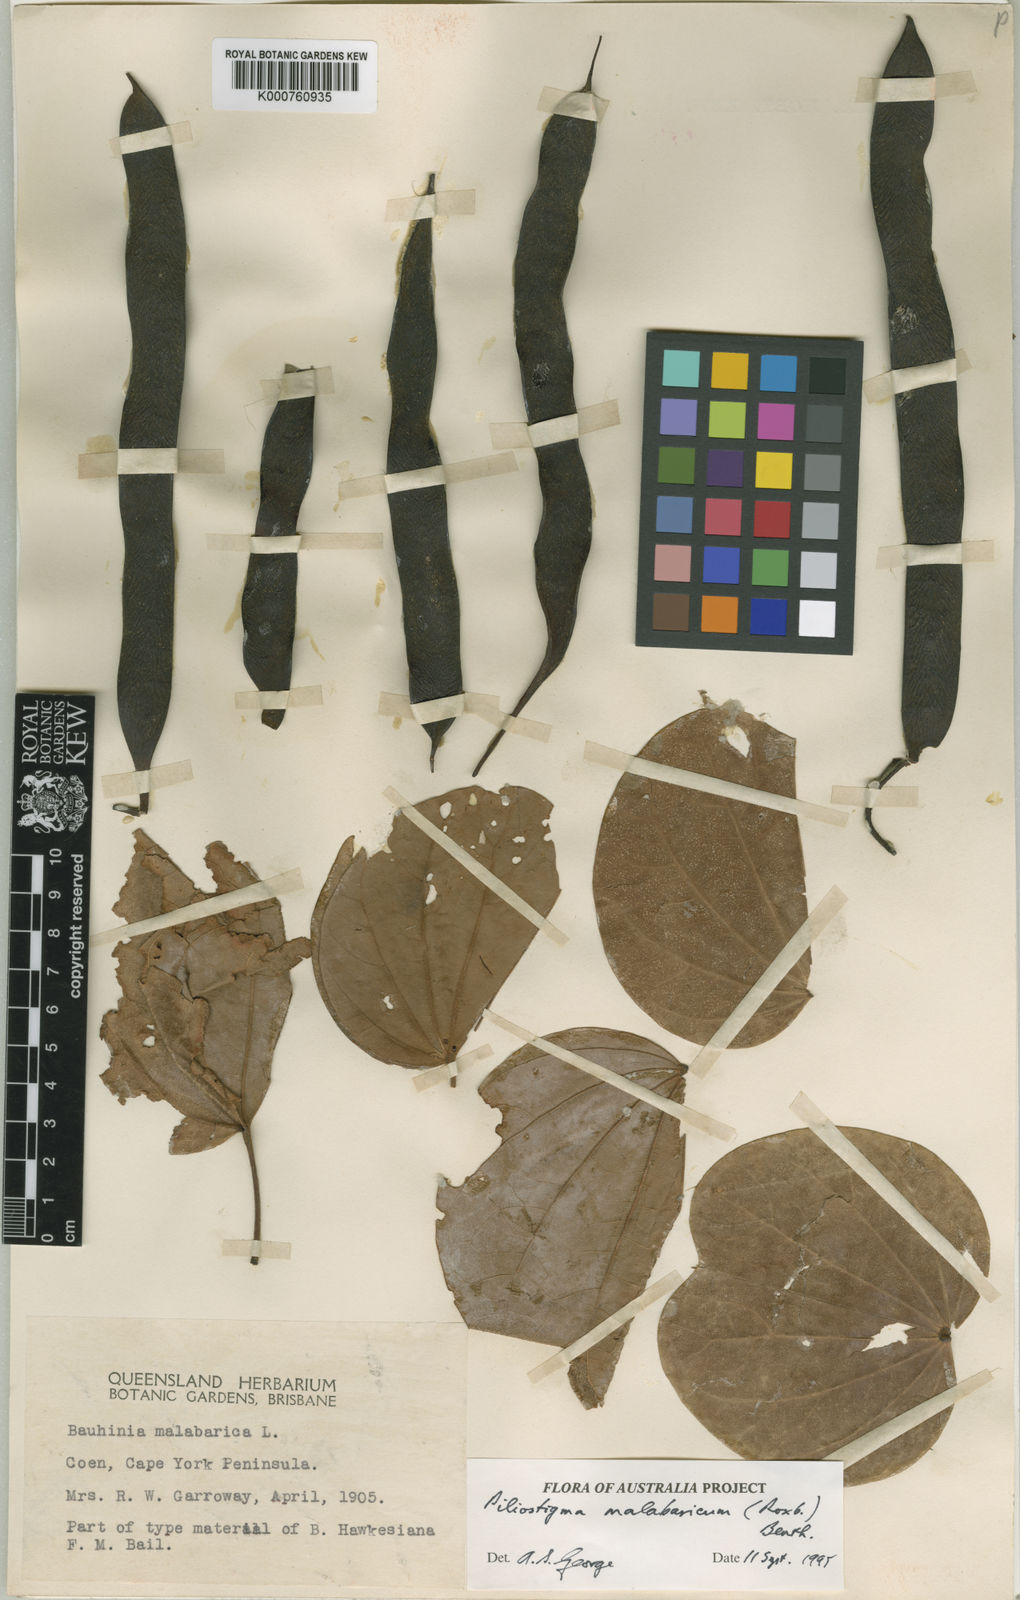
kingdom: Plantae
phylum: Tracheophyta
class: Magnoliopsida
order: Fabales
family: Fabaceae
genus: Piliostigma
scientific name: Piliostigma malabaricum
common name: Malabar bauhinia
